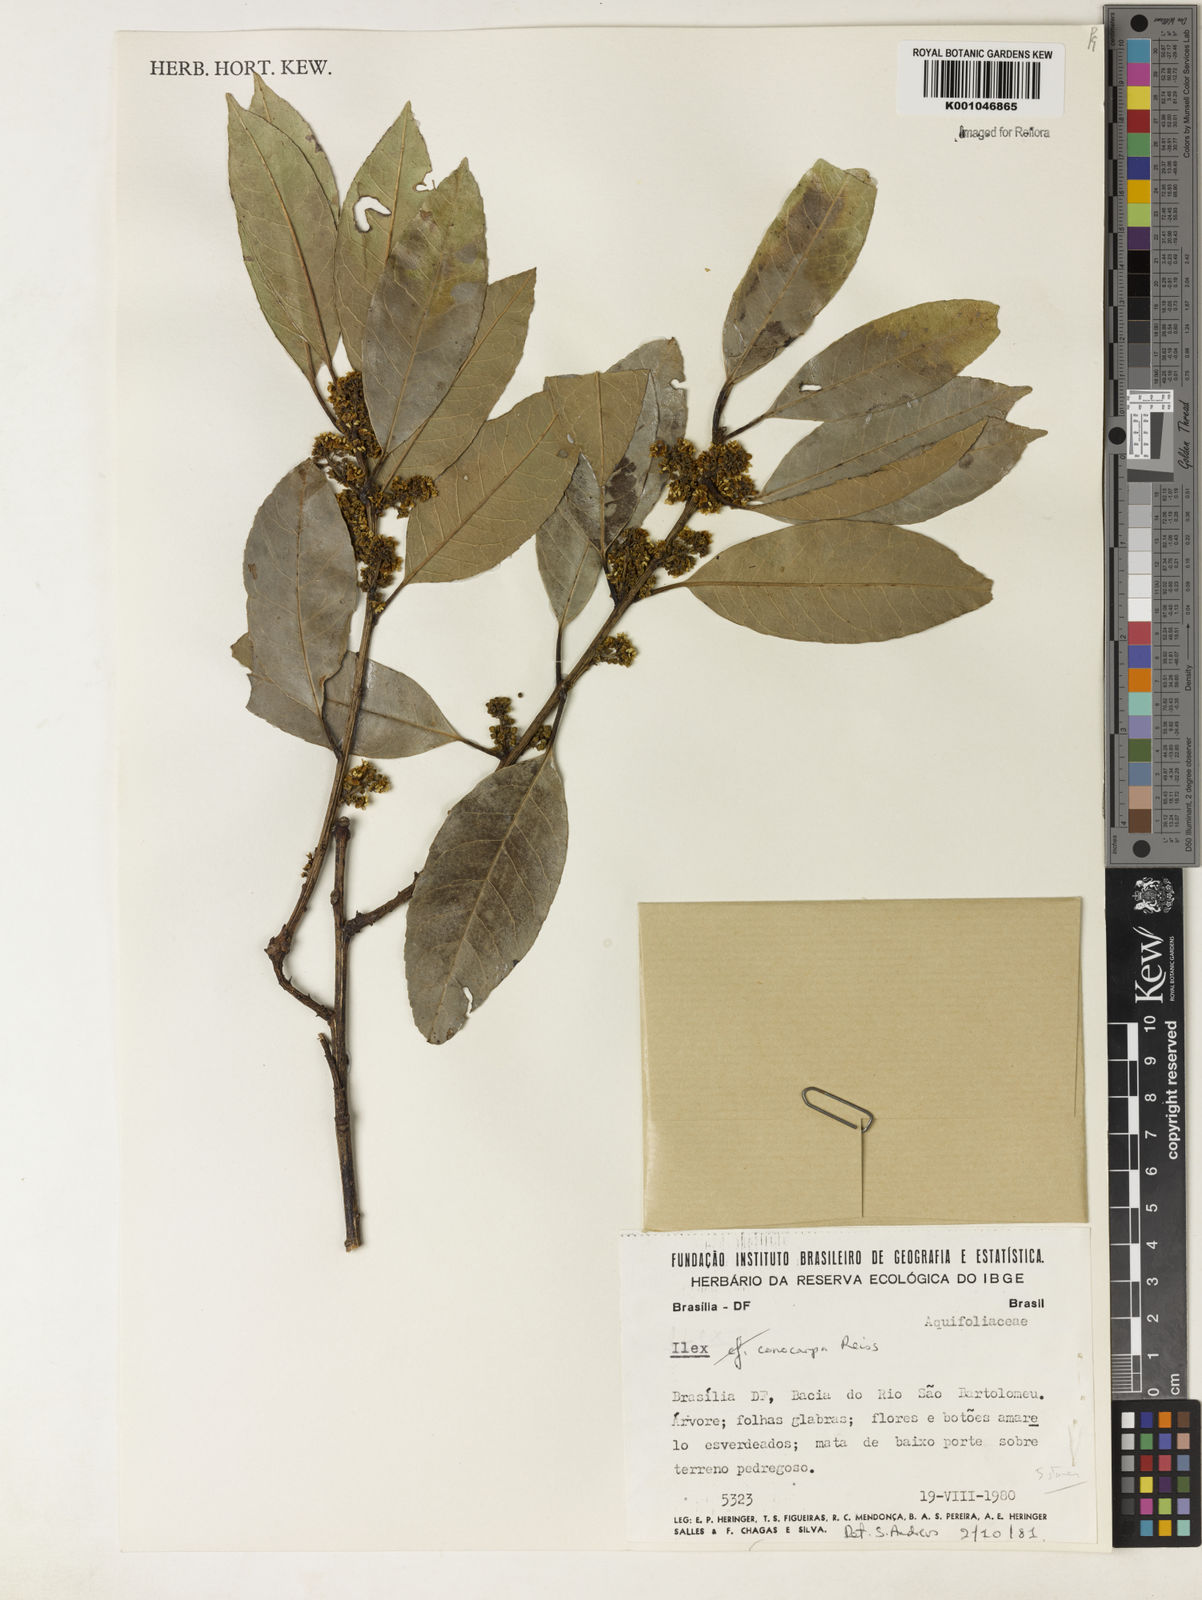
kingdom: Plantae
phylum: Tracheophyta
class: Magnoliopsida
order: Aquifoliales
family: Aquifoliaceae
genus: Ilex
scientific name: Ilex conocarpa
